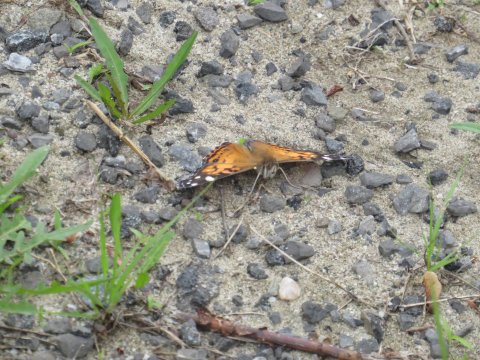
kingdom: Animalia
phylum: Arthropoda
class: Insecta
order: Lepidoptera
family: Nymphalidae
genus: Vanessa
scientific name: Vanessa virginiensis
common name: American Lady
